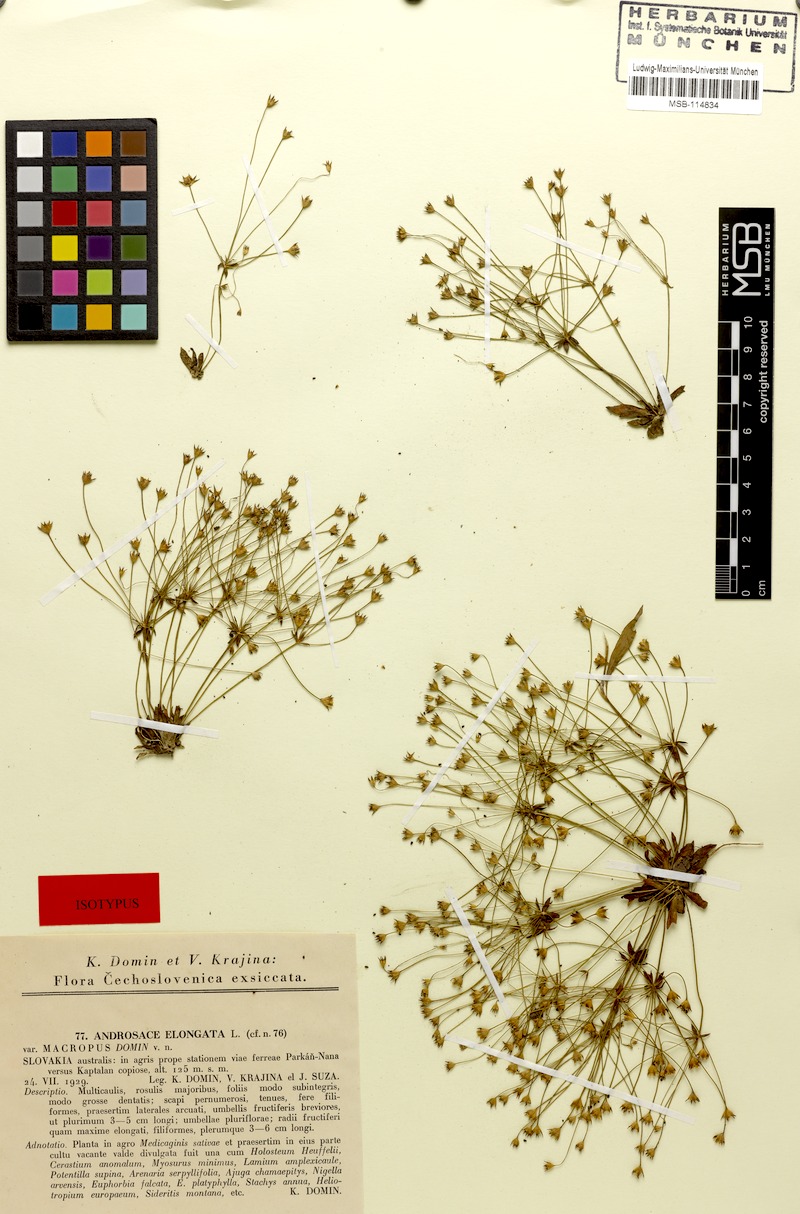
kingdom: Plantae
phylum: Tracheophyta
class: Magnoliopsida
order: Ericales
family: Primulaceae
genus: Androsace
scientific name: Androsace elongata
